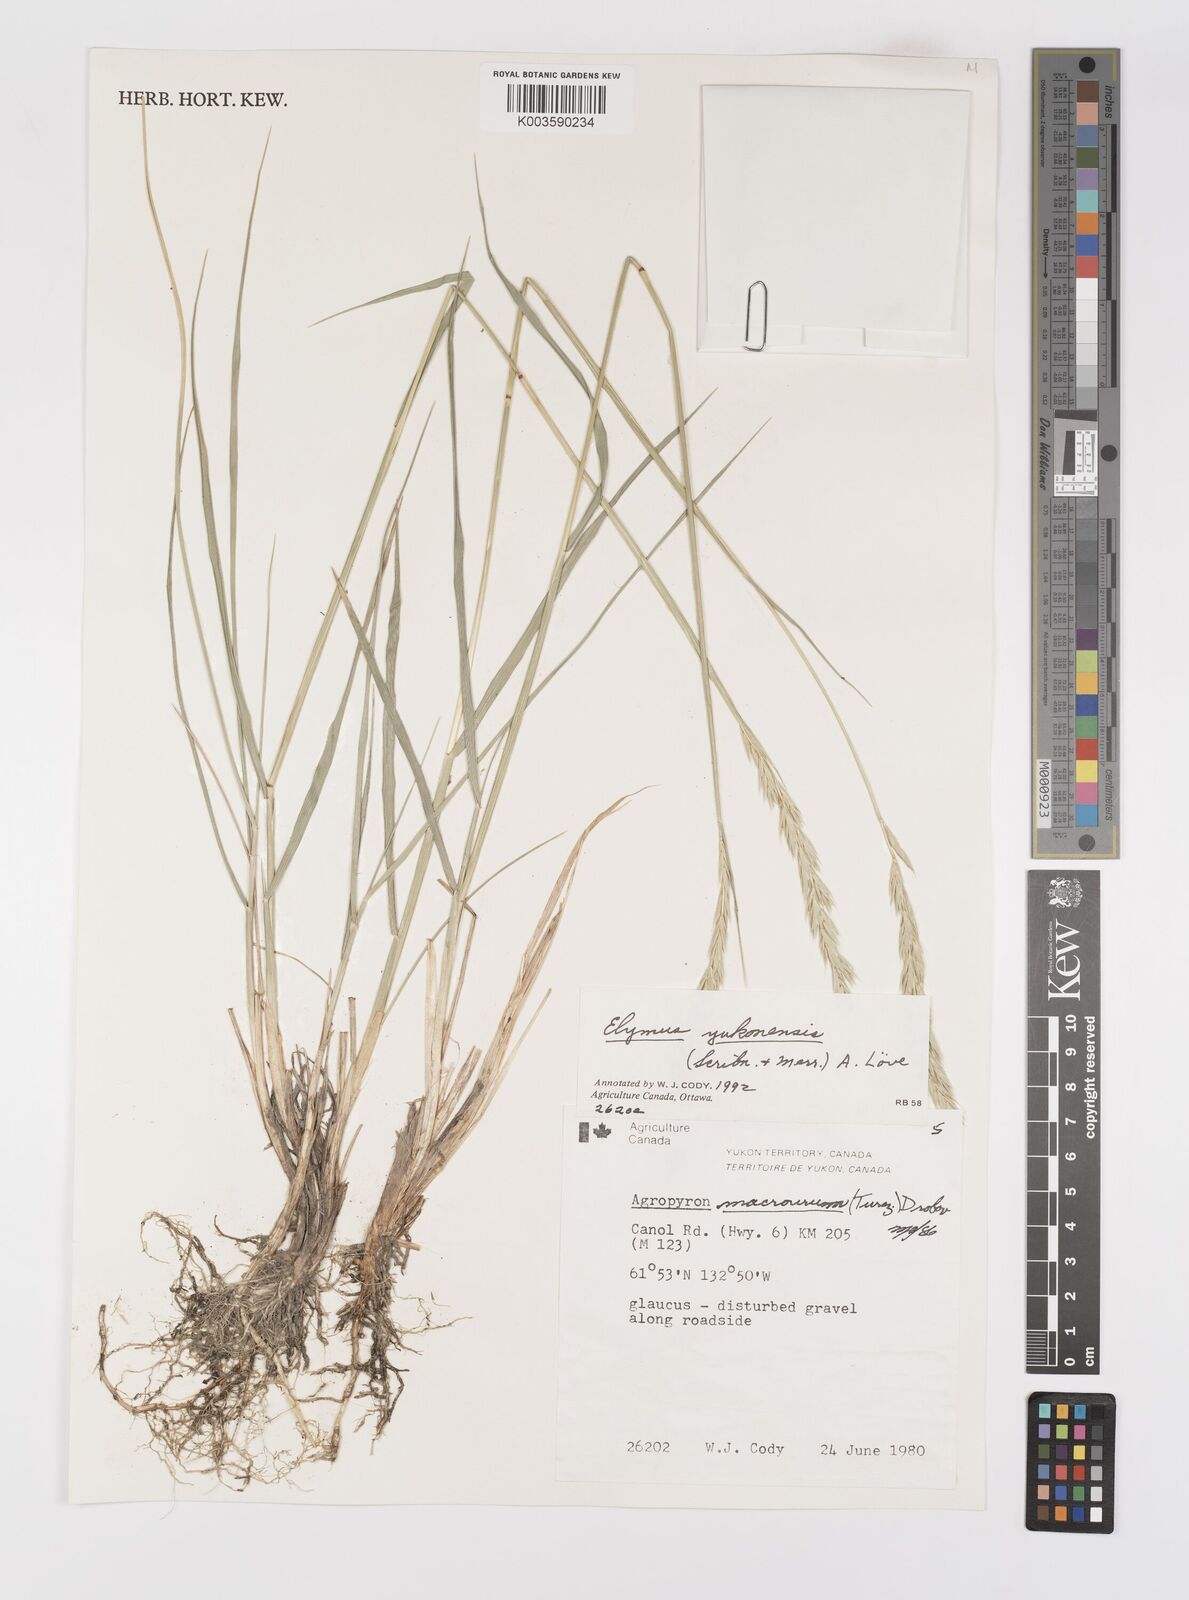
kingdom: Plantae
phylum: Tracheophyta
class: Liliopsida
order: Poales
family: Poaceae
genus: Elymus
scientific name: Elymus alaskanus
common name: Alaska wheatgrass
